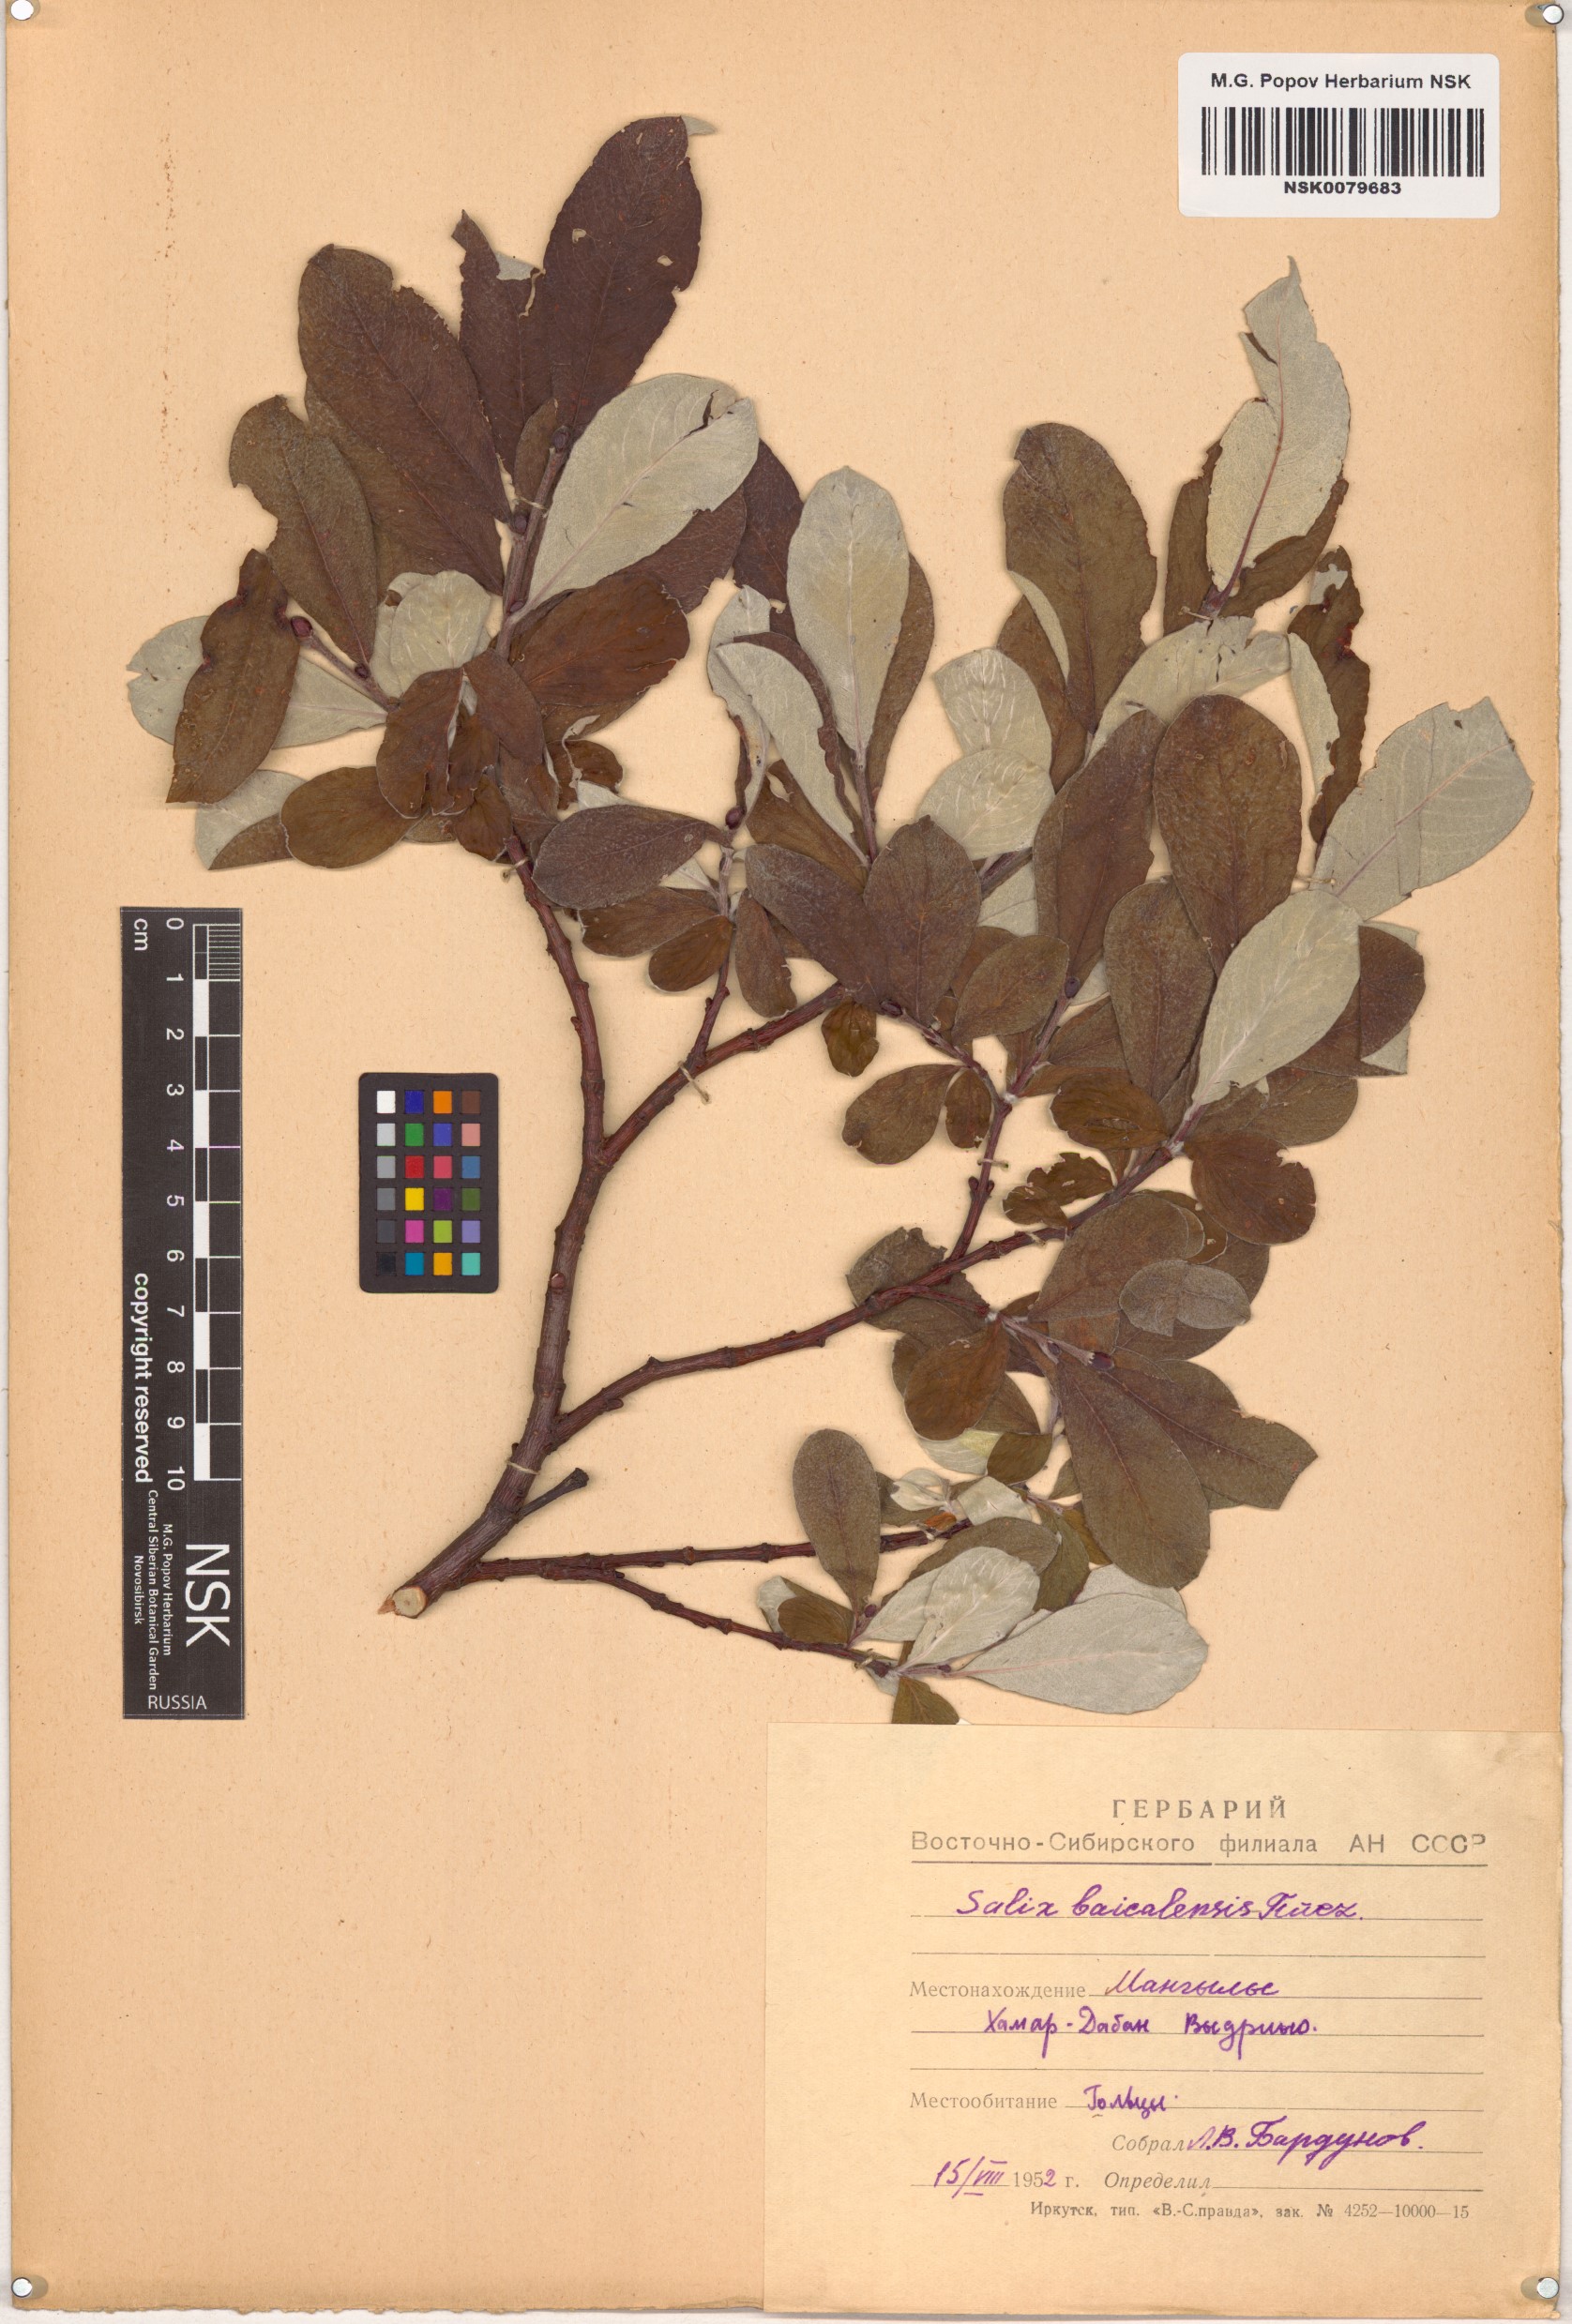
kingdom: Plantae
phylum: Tracheophyta
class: Magnoliopsida
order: Malpighiales
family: Salicaceae
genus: Salix
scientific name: Salix krylovii
